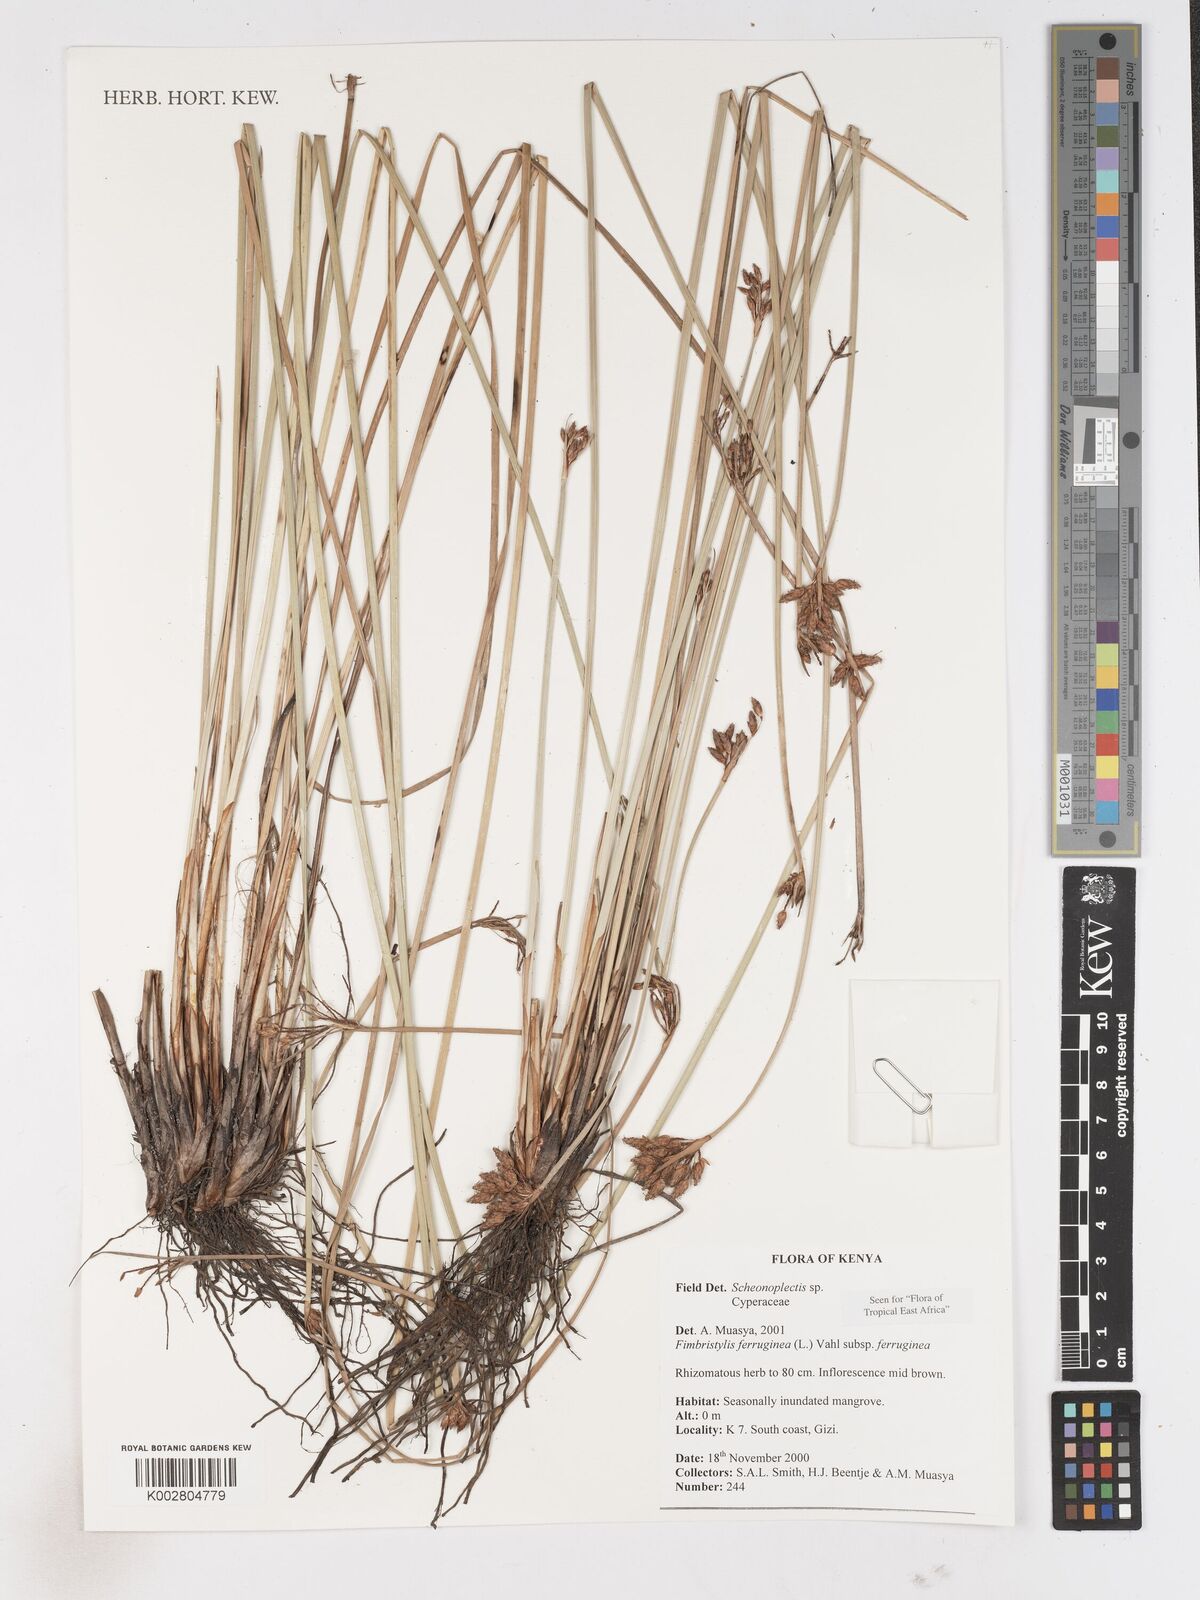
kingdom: Plantae
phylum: Tracheophyta
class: Liliopsida
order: Poales
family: Cyperaceae
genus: Fimbristylis
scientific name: Fimbristylis ferruginea
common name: West indian fimbry
